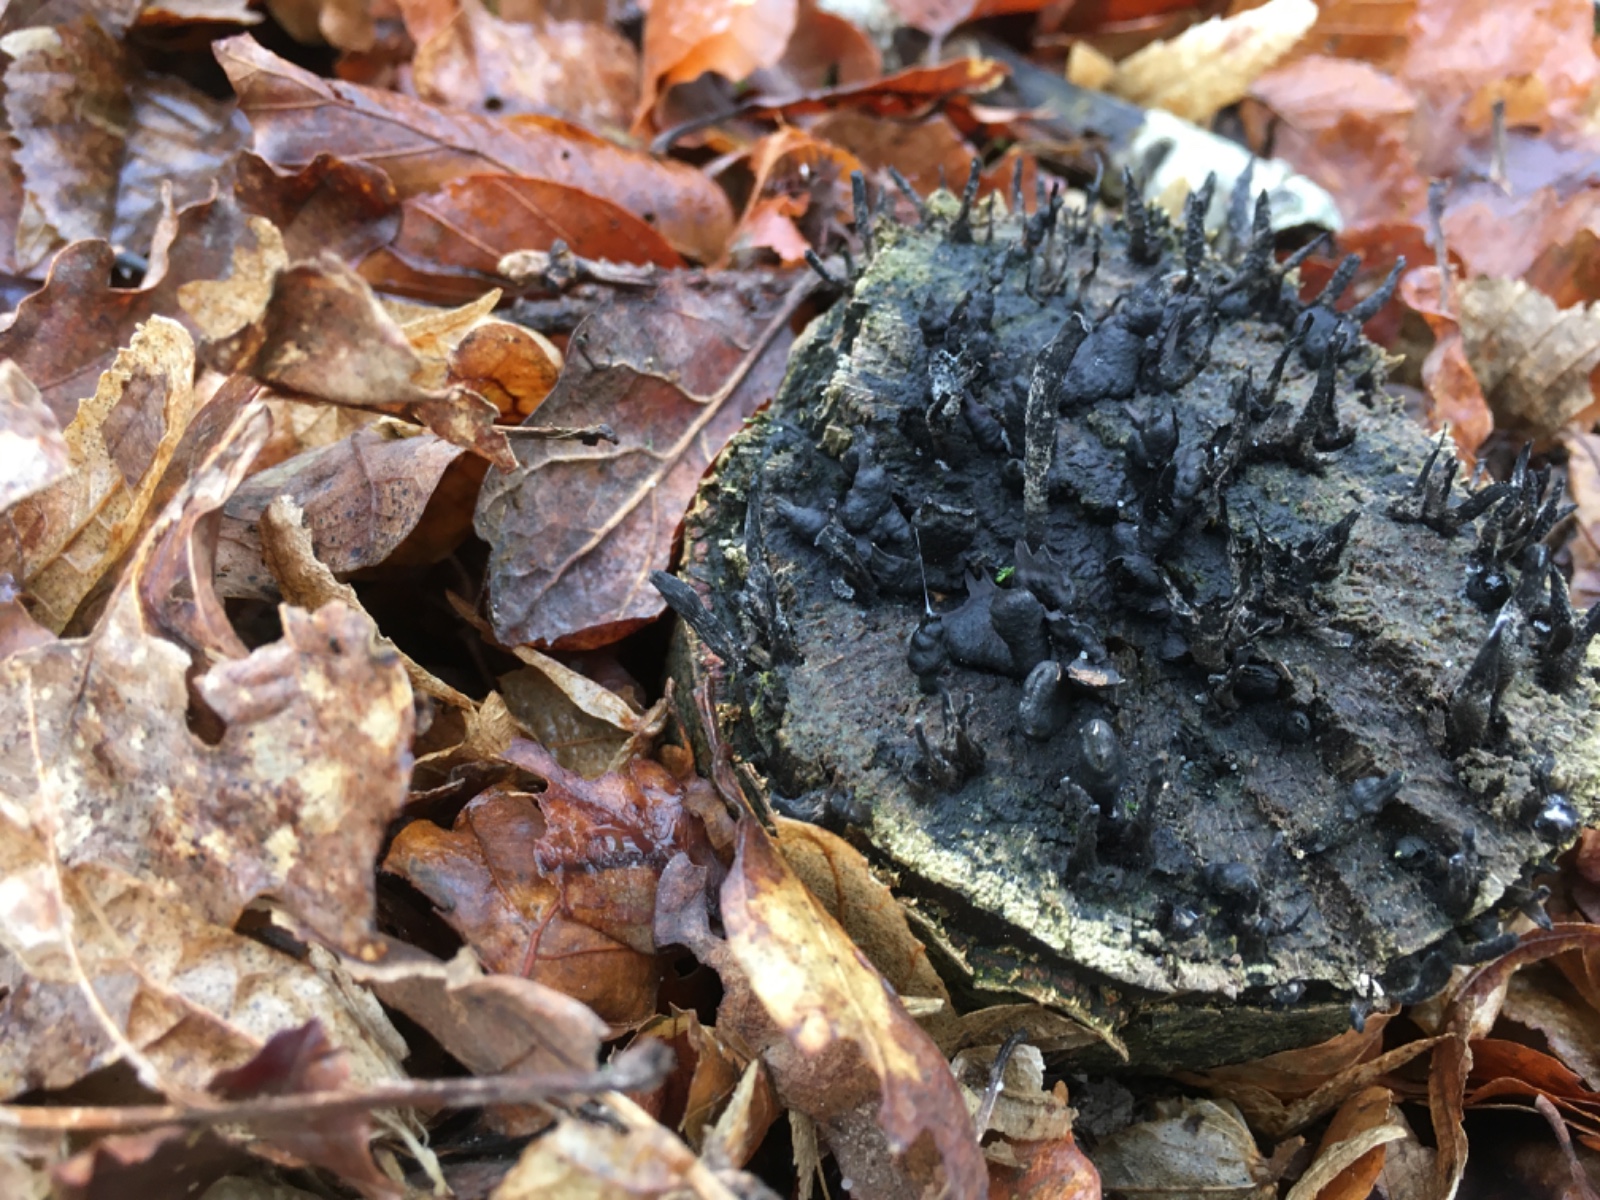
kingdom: Fungi
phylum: Ascomycota
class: Sordariomycetes
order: Xylariales
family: Xylariaceae
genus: Xylaria
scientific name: Xylaria hypoxylon
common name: grenet stødsvamp
